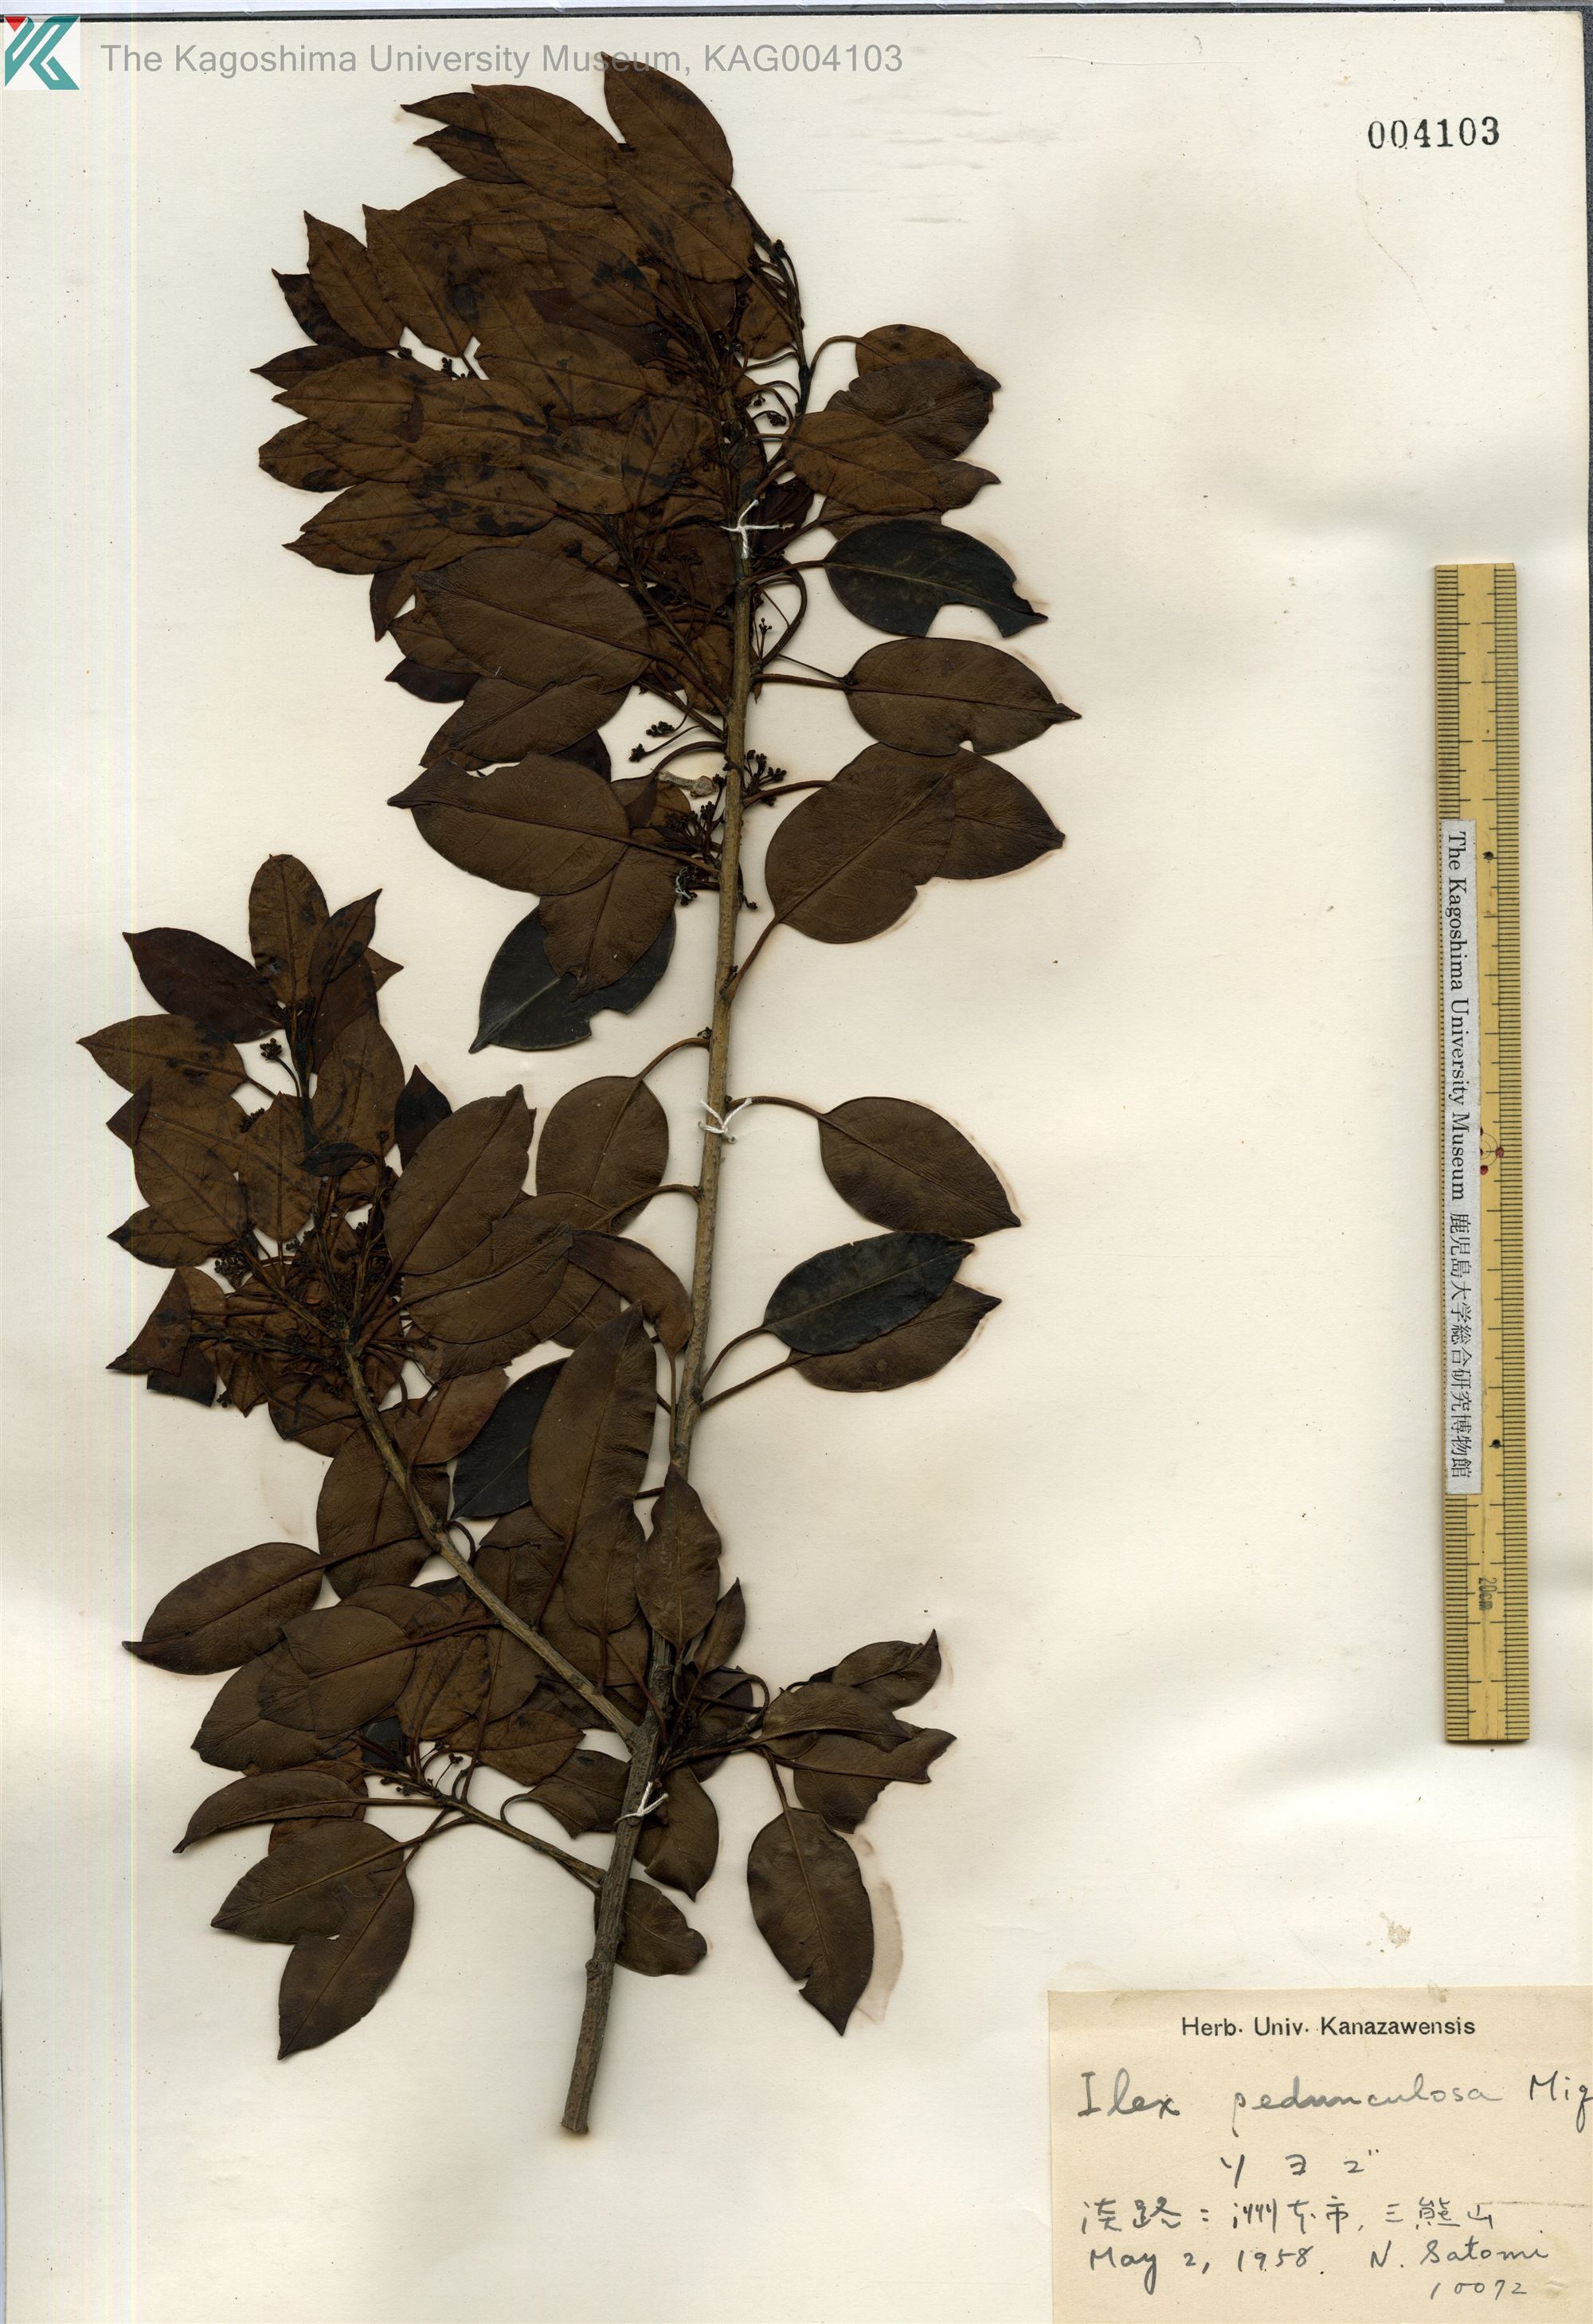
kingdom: Plantae
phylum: Tracheophyta
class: Magnoliopsida
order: Aquifoliales
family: Aquifoliaceae
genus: Ilex
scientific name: Ilex pedunculosa
